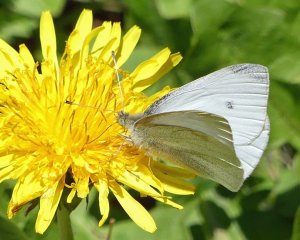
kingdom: Animalia
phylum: Arthropoda
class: Insecta
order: Lepidoptera
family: Pieridae
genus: Pieris
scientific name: Pieris rapae
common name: Cabbage White
